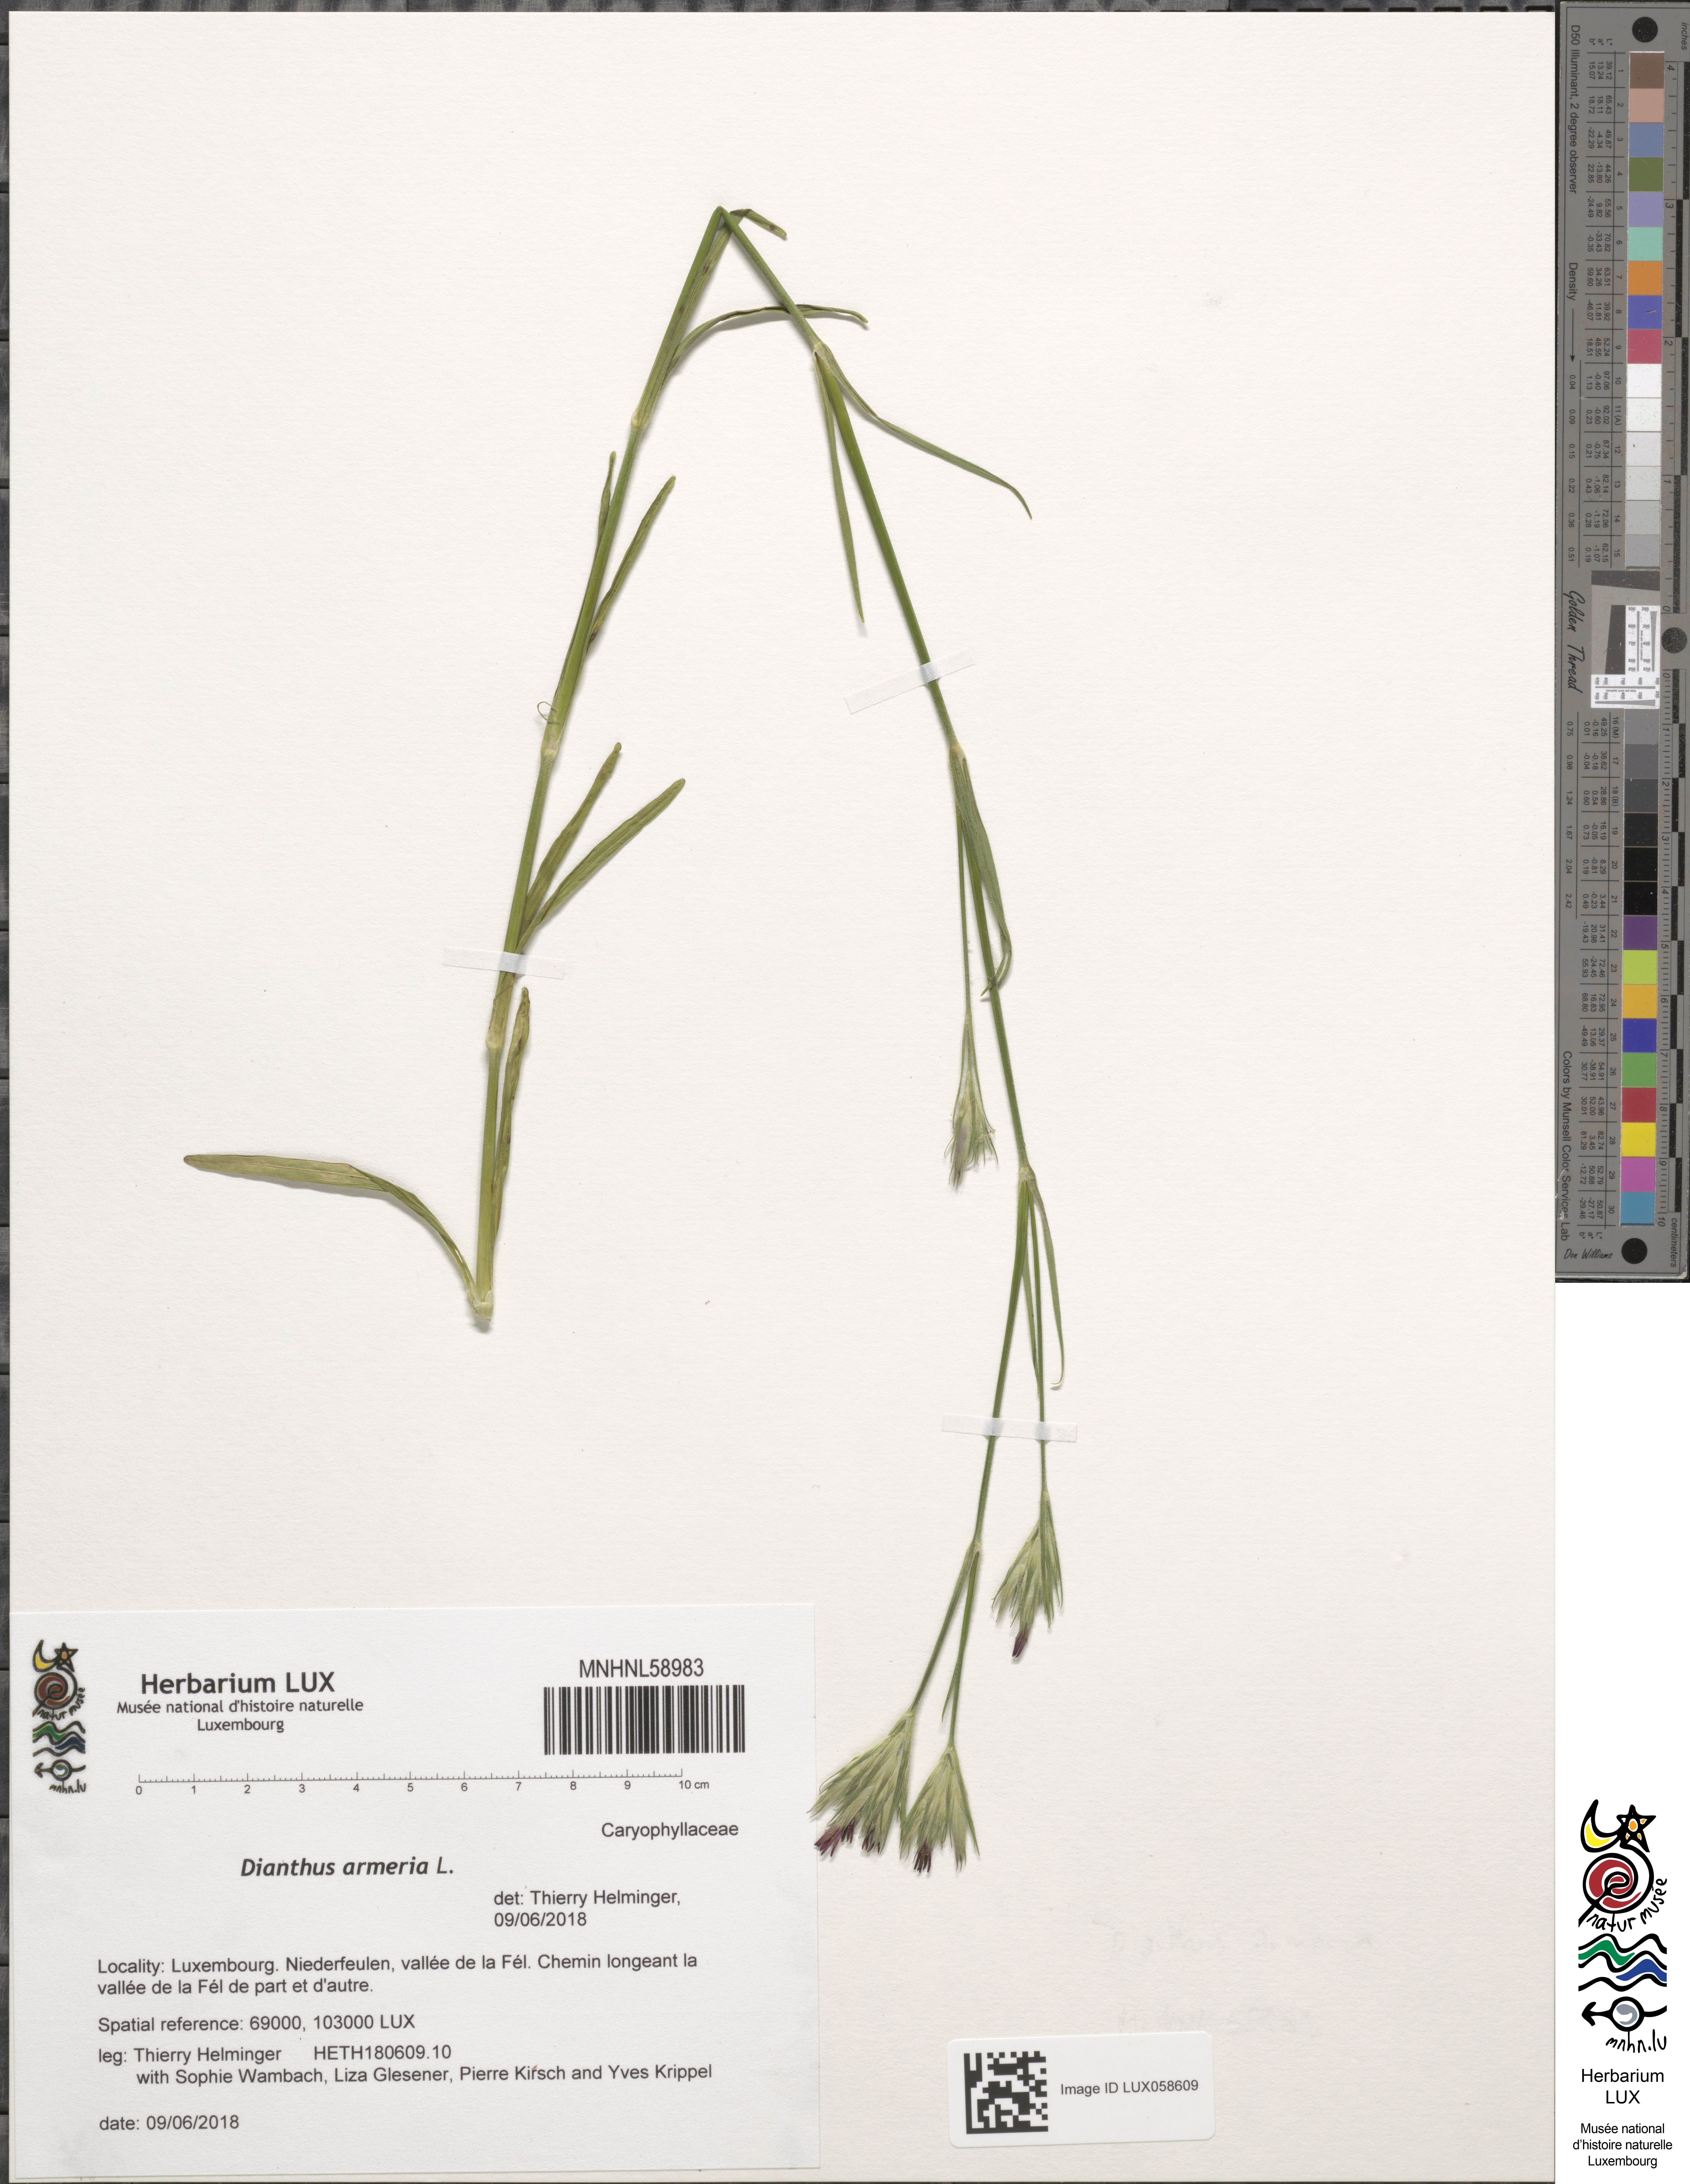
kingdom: Plantae
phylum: Tracheophyta
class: Magnoliopsida
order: Caryophyllales
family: Caryophyllaceae
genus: Dianthus
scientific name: Dianthus armeria
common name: Deptford pink
